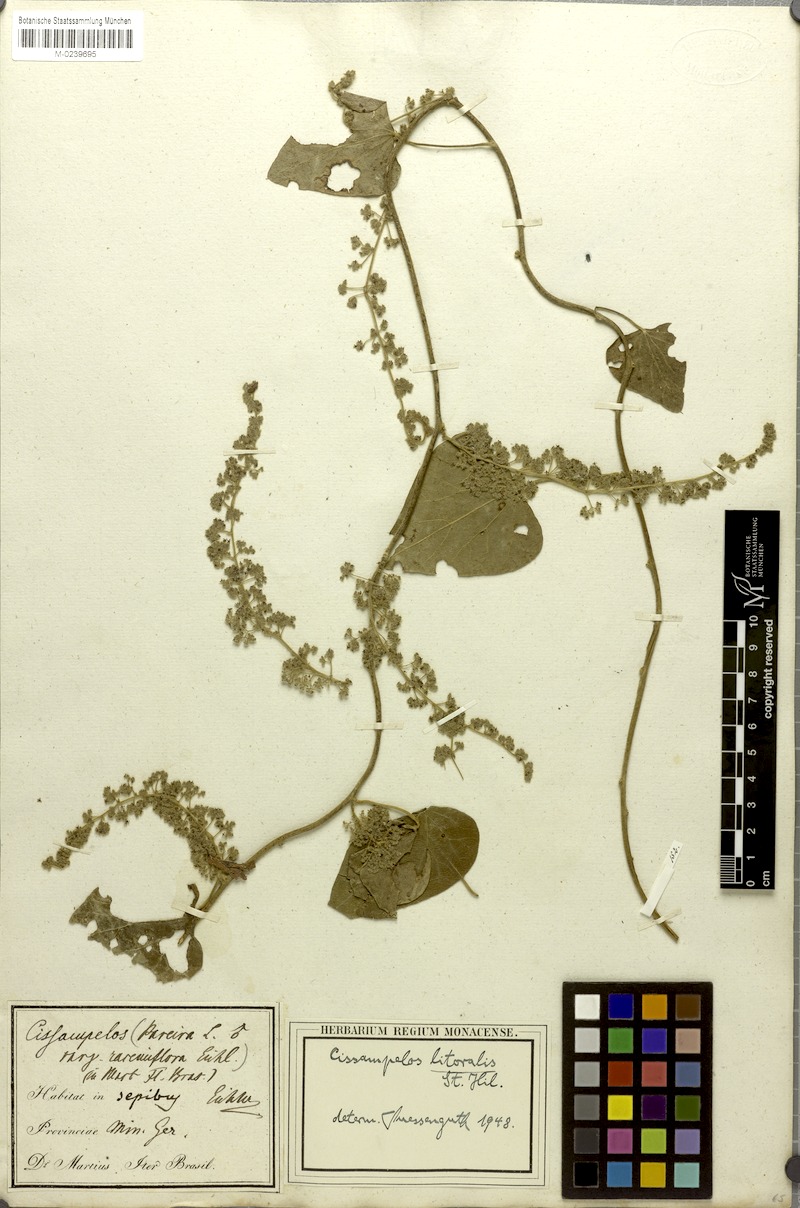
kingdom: Plantae
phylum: Tracheophyta
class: Magnoliopsida
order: Ranunculales
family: Menispermaceae
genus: Cissampelos
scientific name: Cissampelos pareira
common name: Velvetleaf
